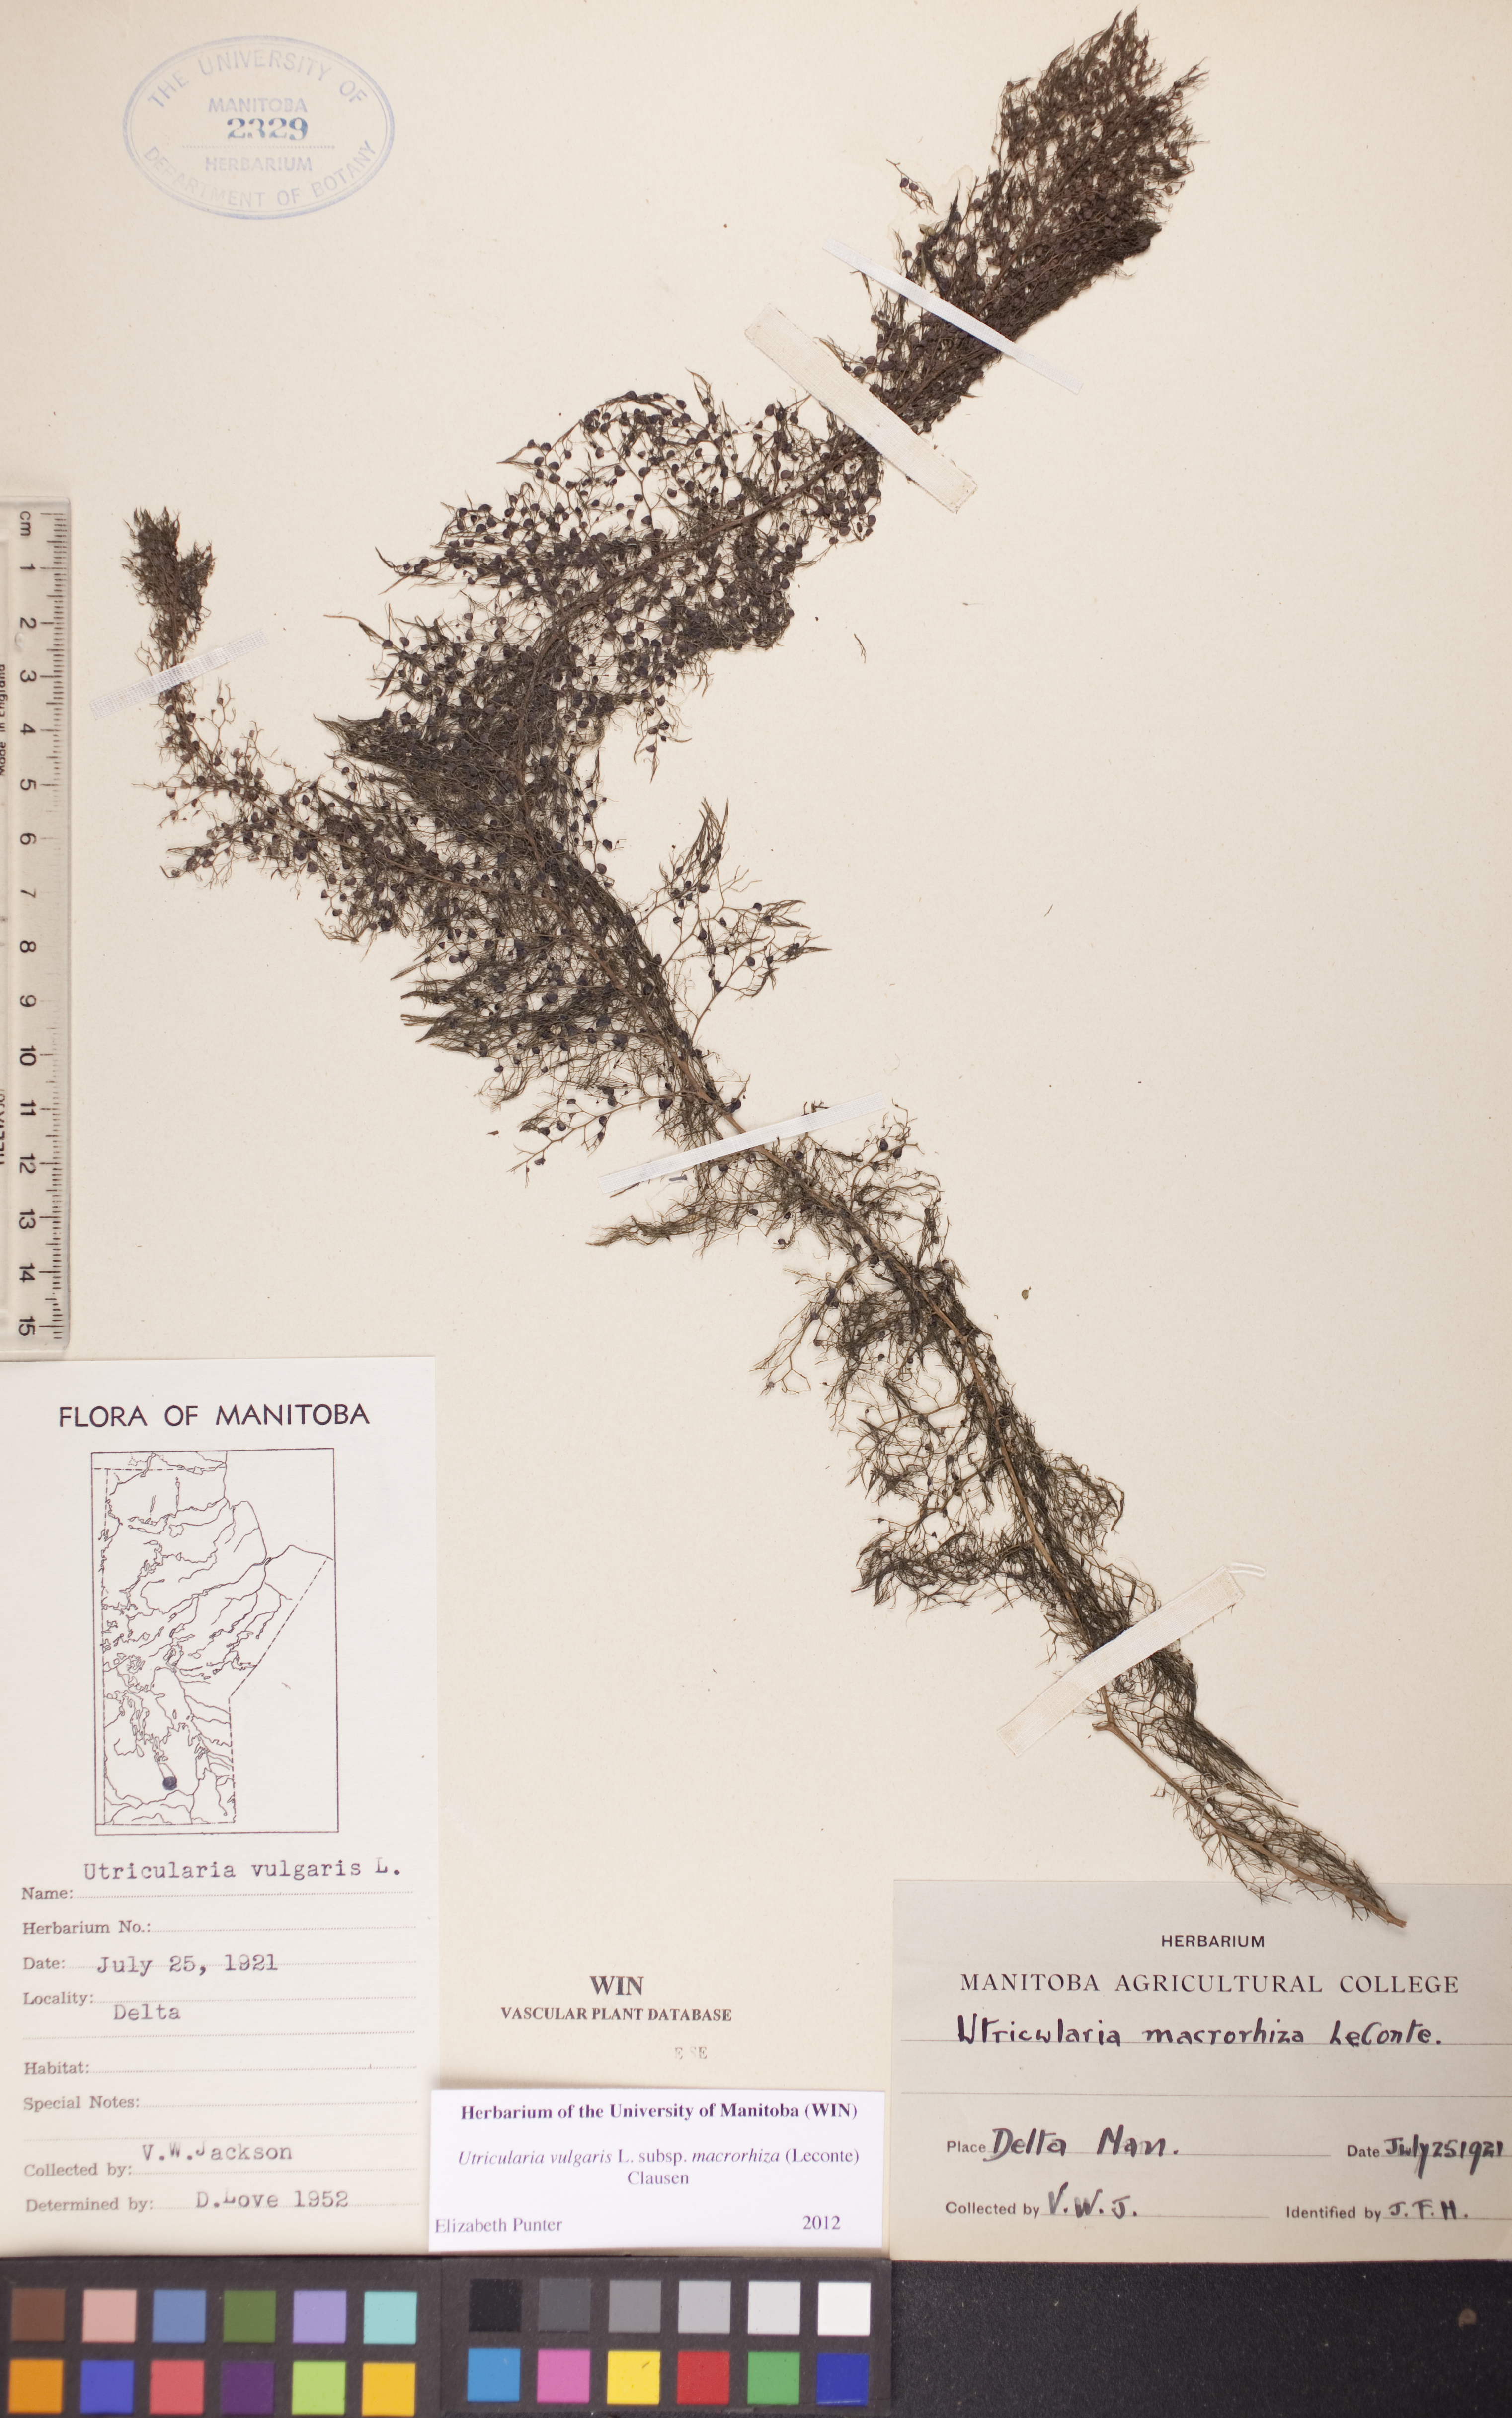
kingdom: Plantae
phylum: Tracheophyta
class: Magnoliopsida
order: Lamiales
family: Lentibulariaceae
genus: Utricularia
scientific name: Utricularia macrorhiza
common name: Common bladderwort
